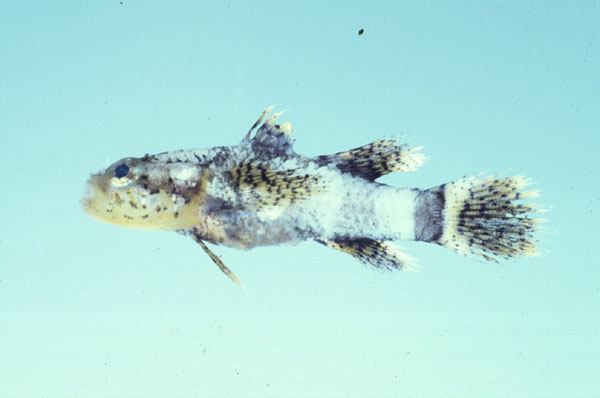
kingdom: Animalia
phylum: Chordata
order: Perciformes
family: Gobiidae
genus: Callogobius
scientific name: Callogobius sclateri
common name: Dusky-banded goby
